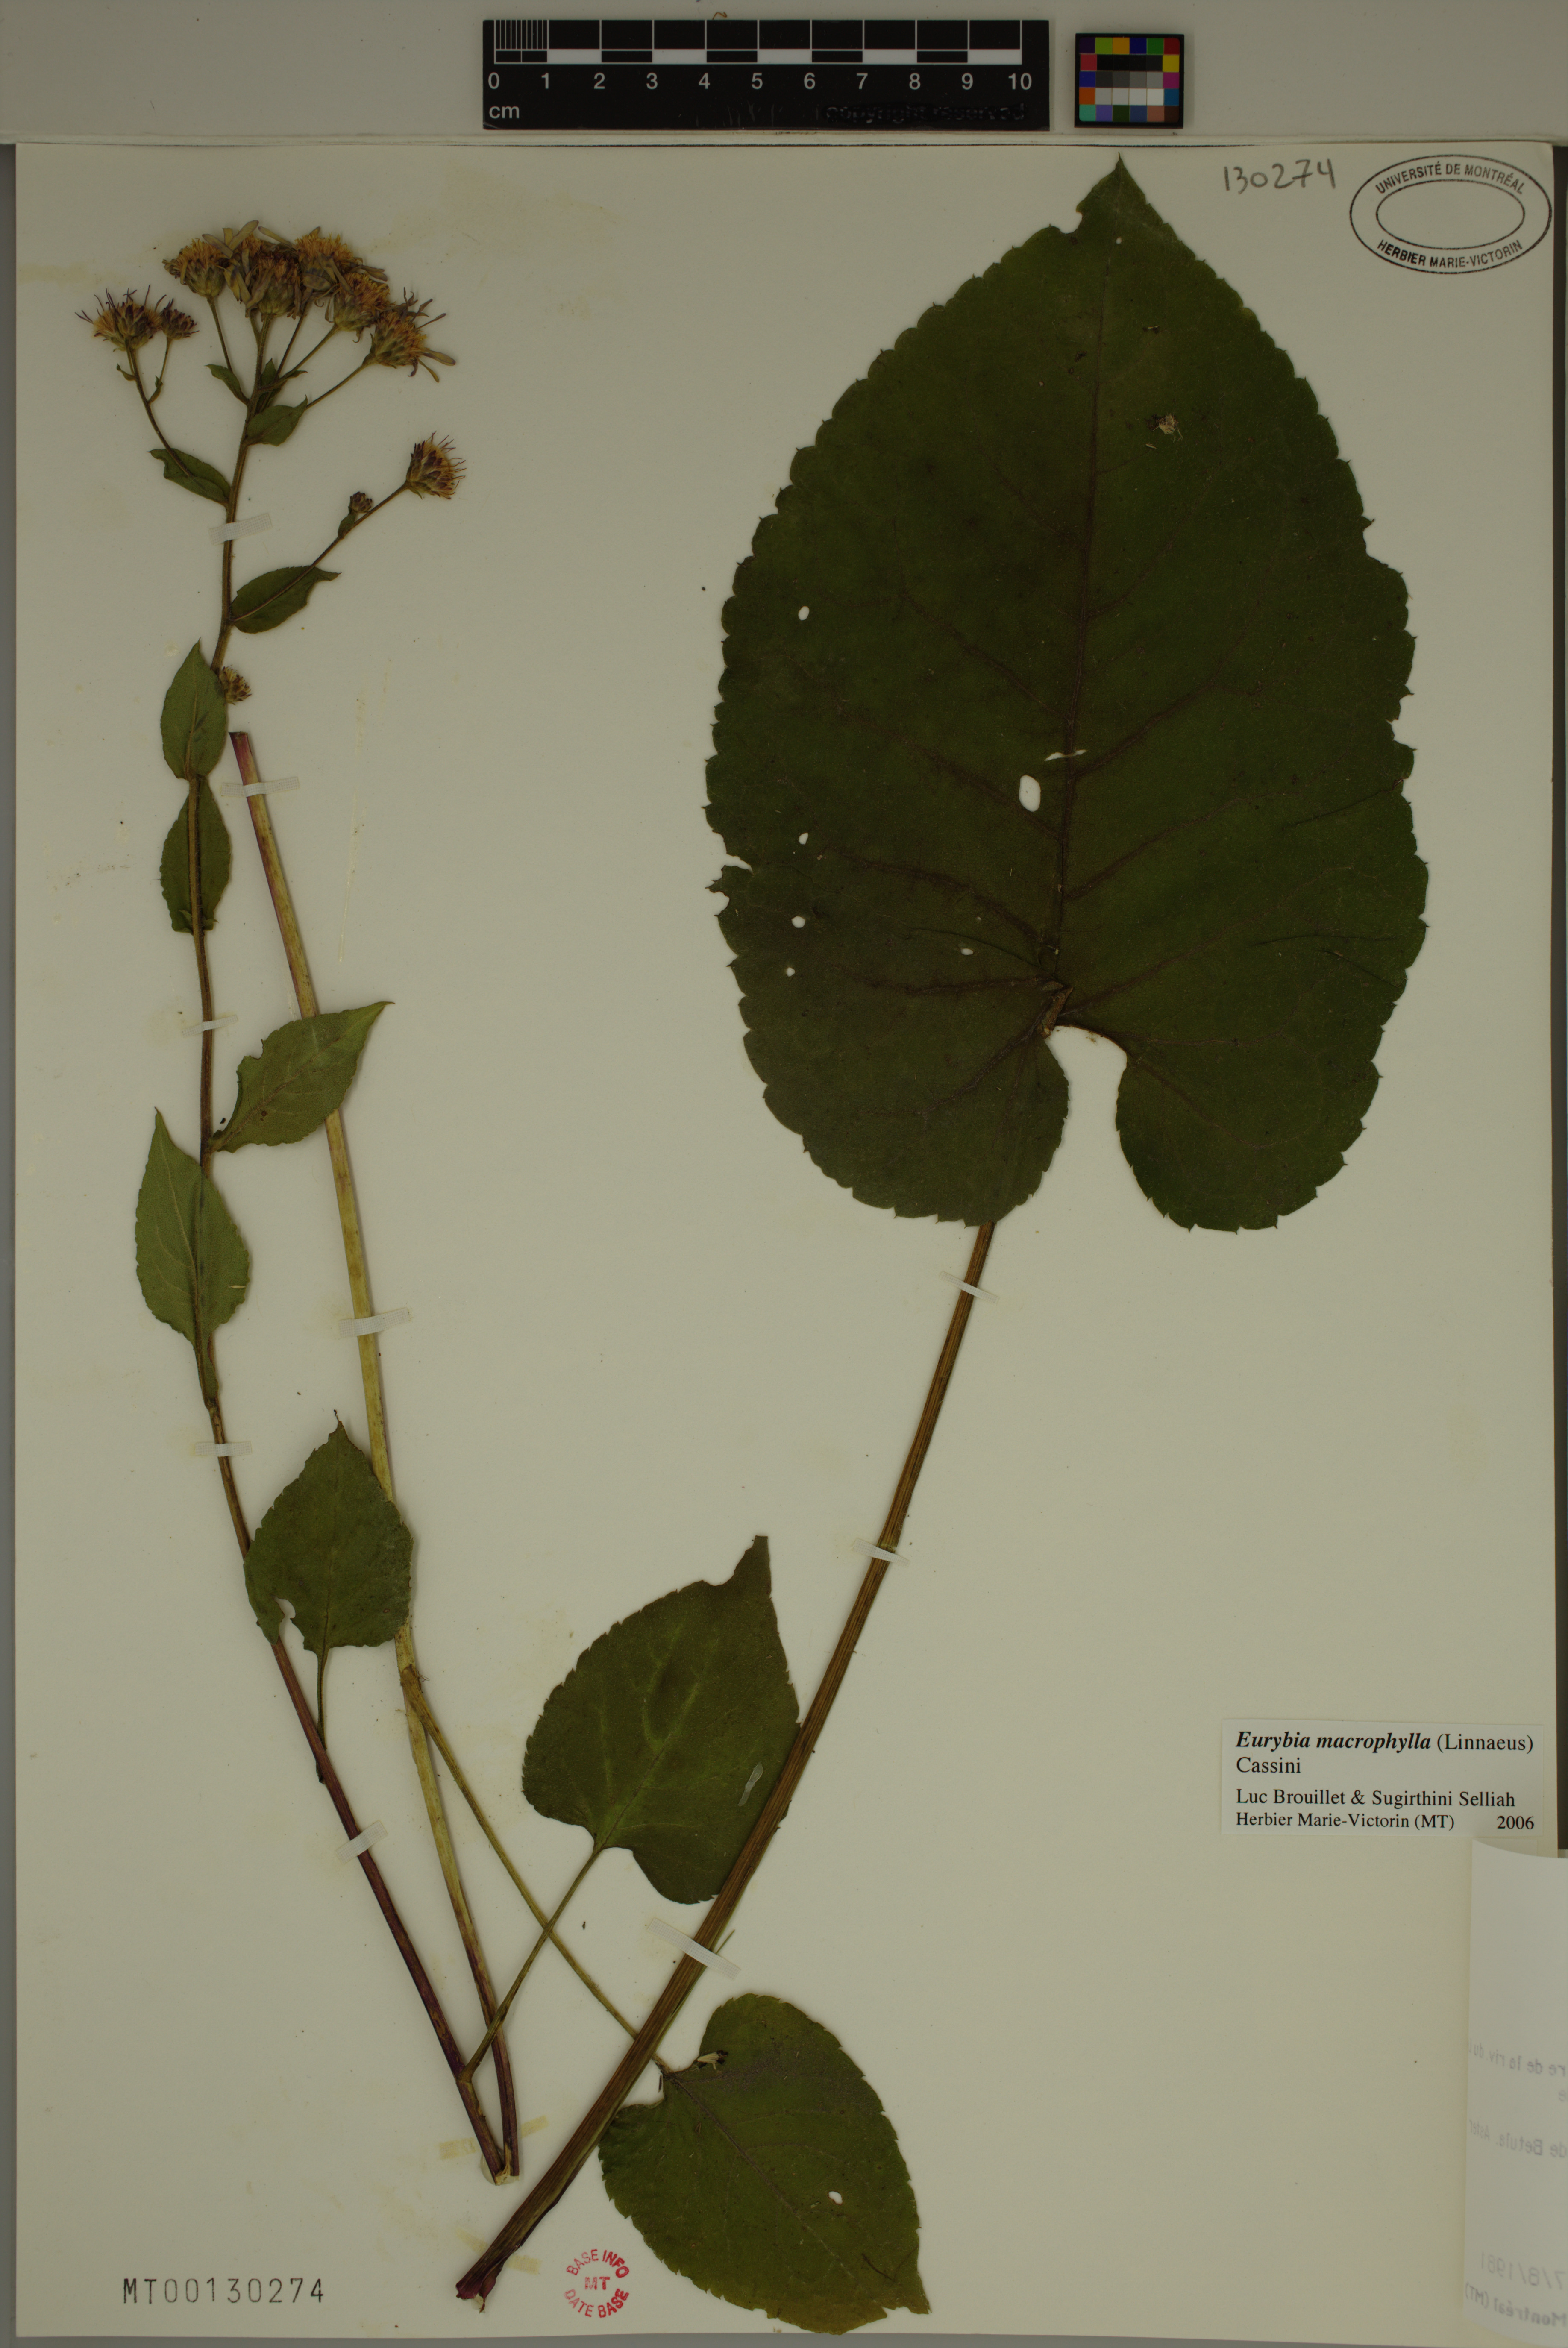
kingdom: Plantae
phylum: Tracheophyta
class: Magnoliopsida
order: Asterales
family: Asteraceae
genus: Eurybia
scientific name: Eurybia macrophylla
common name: Big-leaved aster
